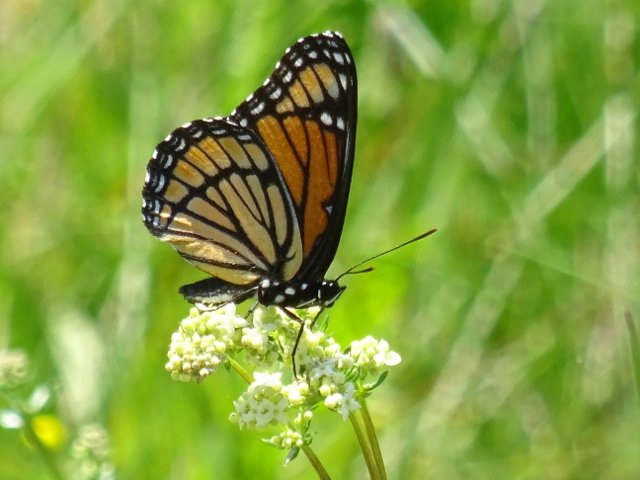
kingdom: Animalia
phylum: Arthropoda
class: Insecta
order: Lepidoptera
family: Nymphalidae
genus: Limenitis
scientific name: Limenitis archippus
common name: Viceroy
